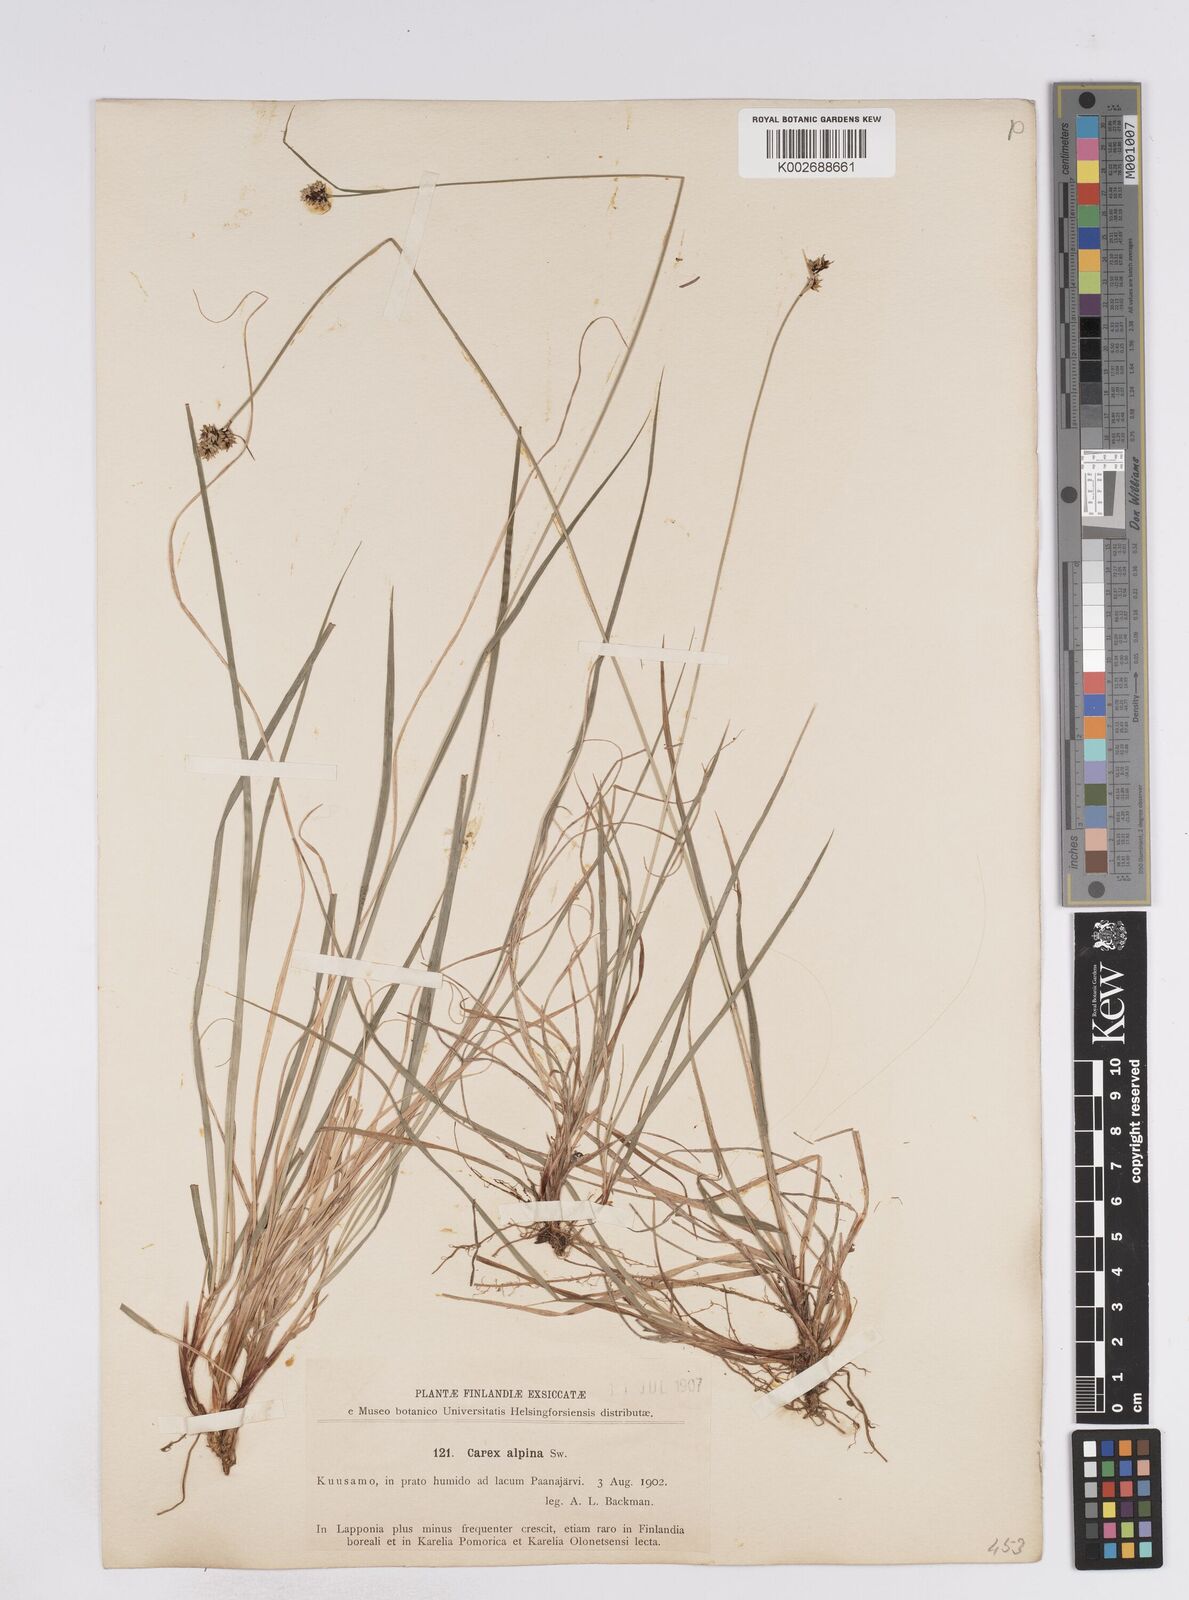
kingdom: Plantae
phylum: Tracheophyta
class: Liliopsida
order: Poales
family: Cyperaceae
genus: Carex
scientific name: Carex media
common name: Alpine sedge
